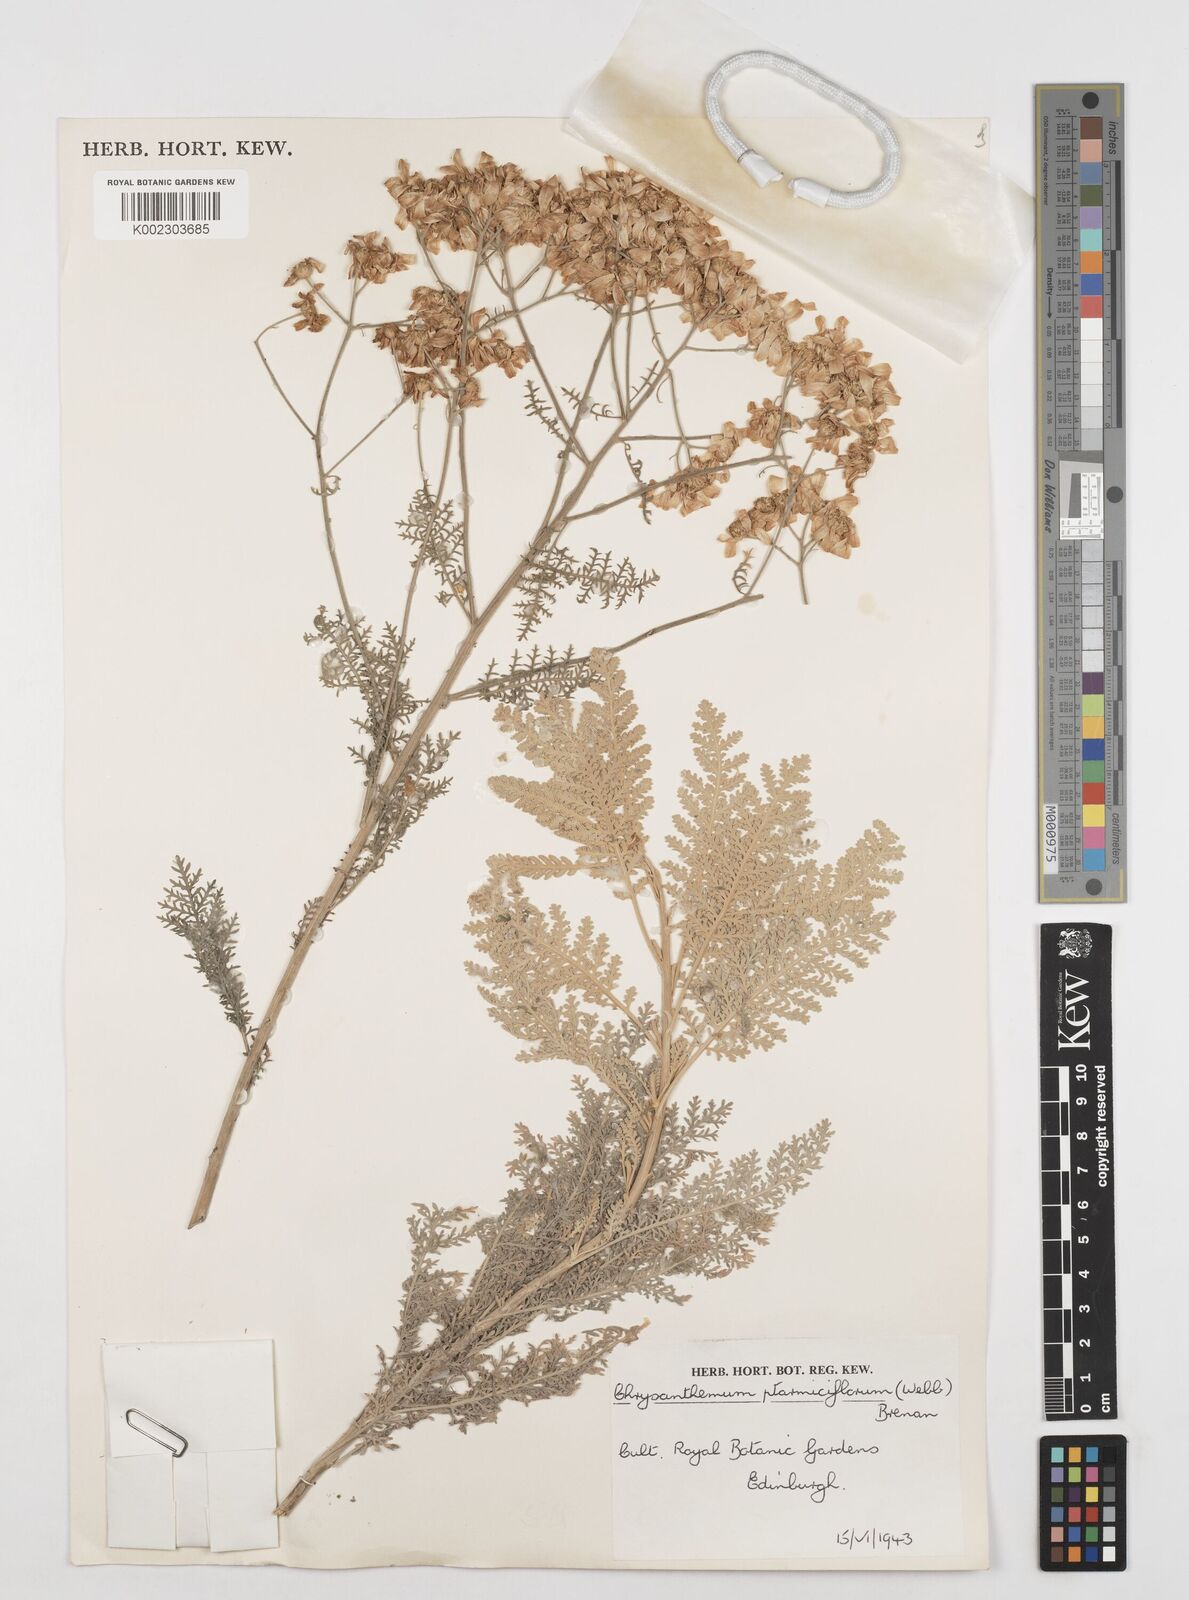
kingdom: Plantae
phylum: Tracheophyta
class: Magnoliopsida
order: Asterales
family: Asteraceae
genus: Gonospermum
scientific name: Gonospermum ptarmiciflorum
